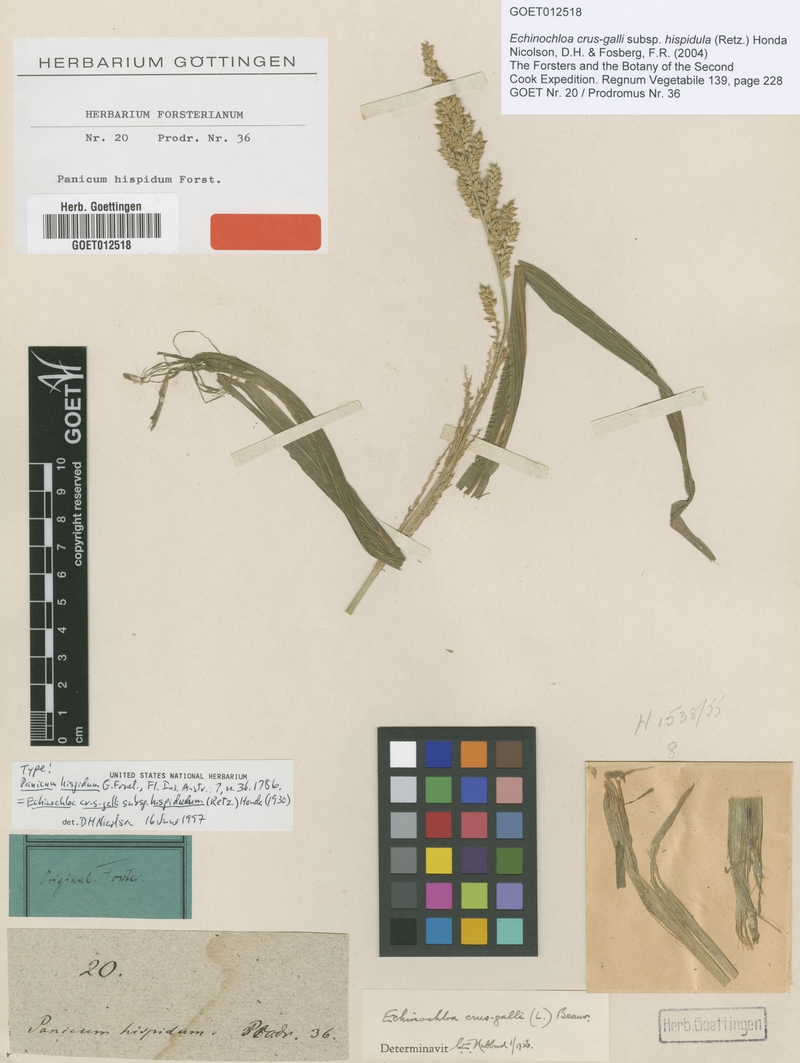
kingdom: Plantae
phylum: Tracheophyta
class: Liliopsida
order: Poales
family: Poaceae
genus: Echinochloa
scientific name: Echinochloa oryzoides
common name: Early water grass
